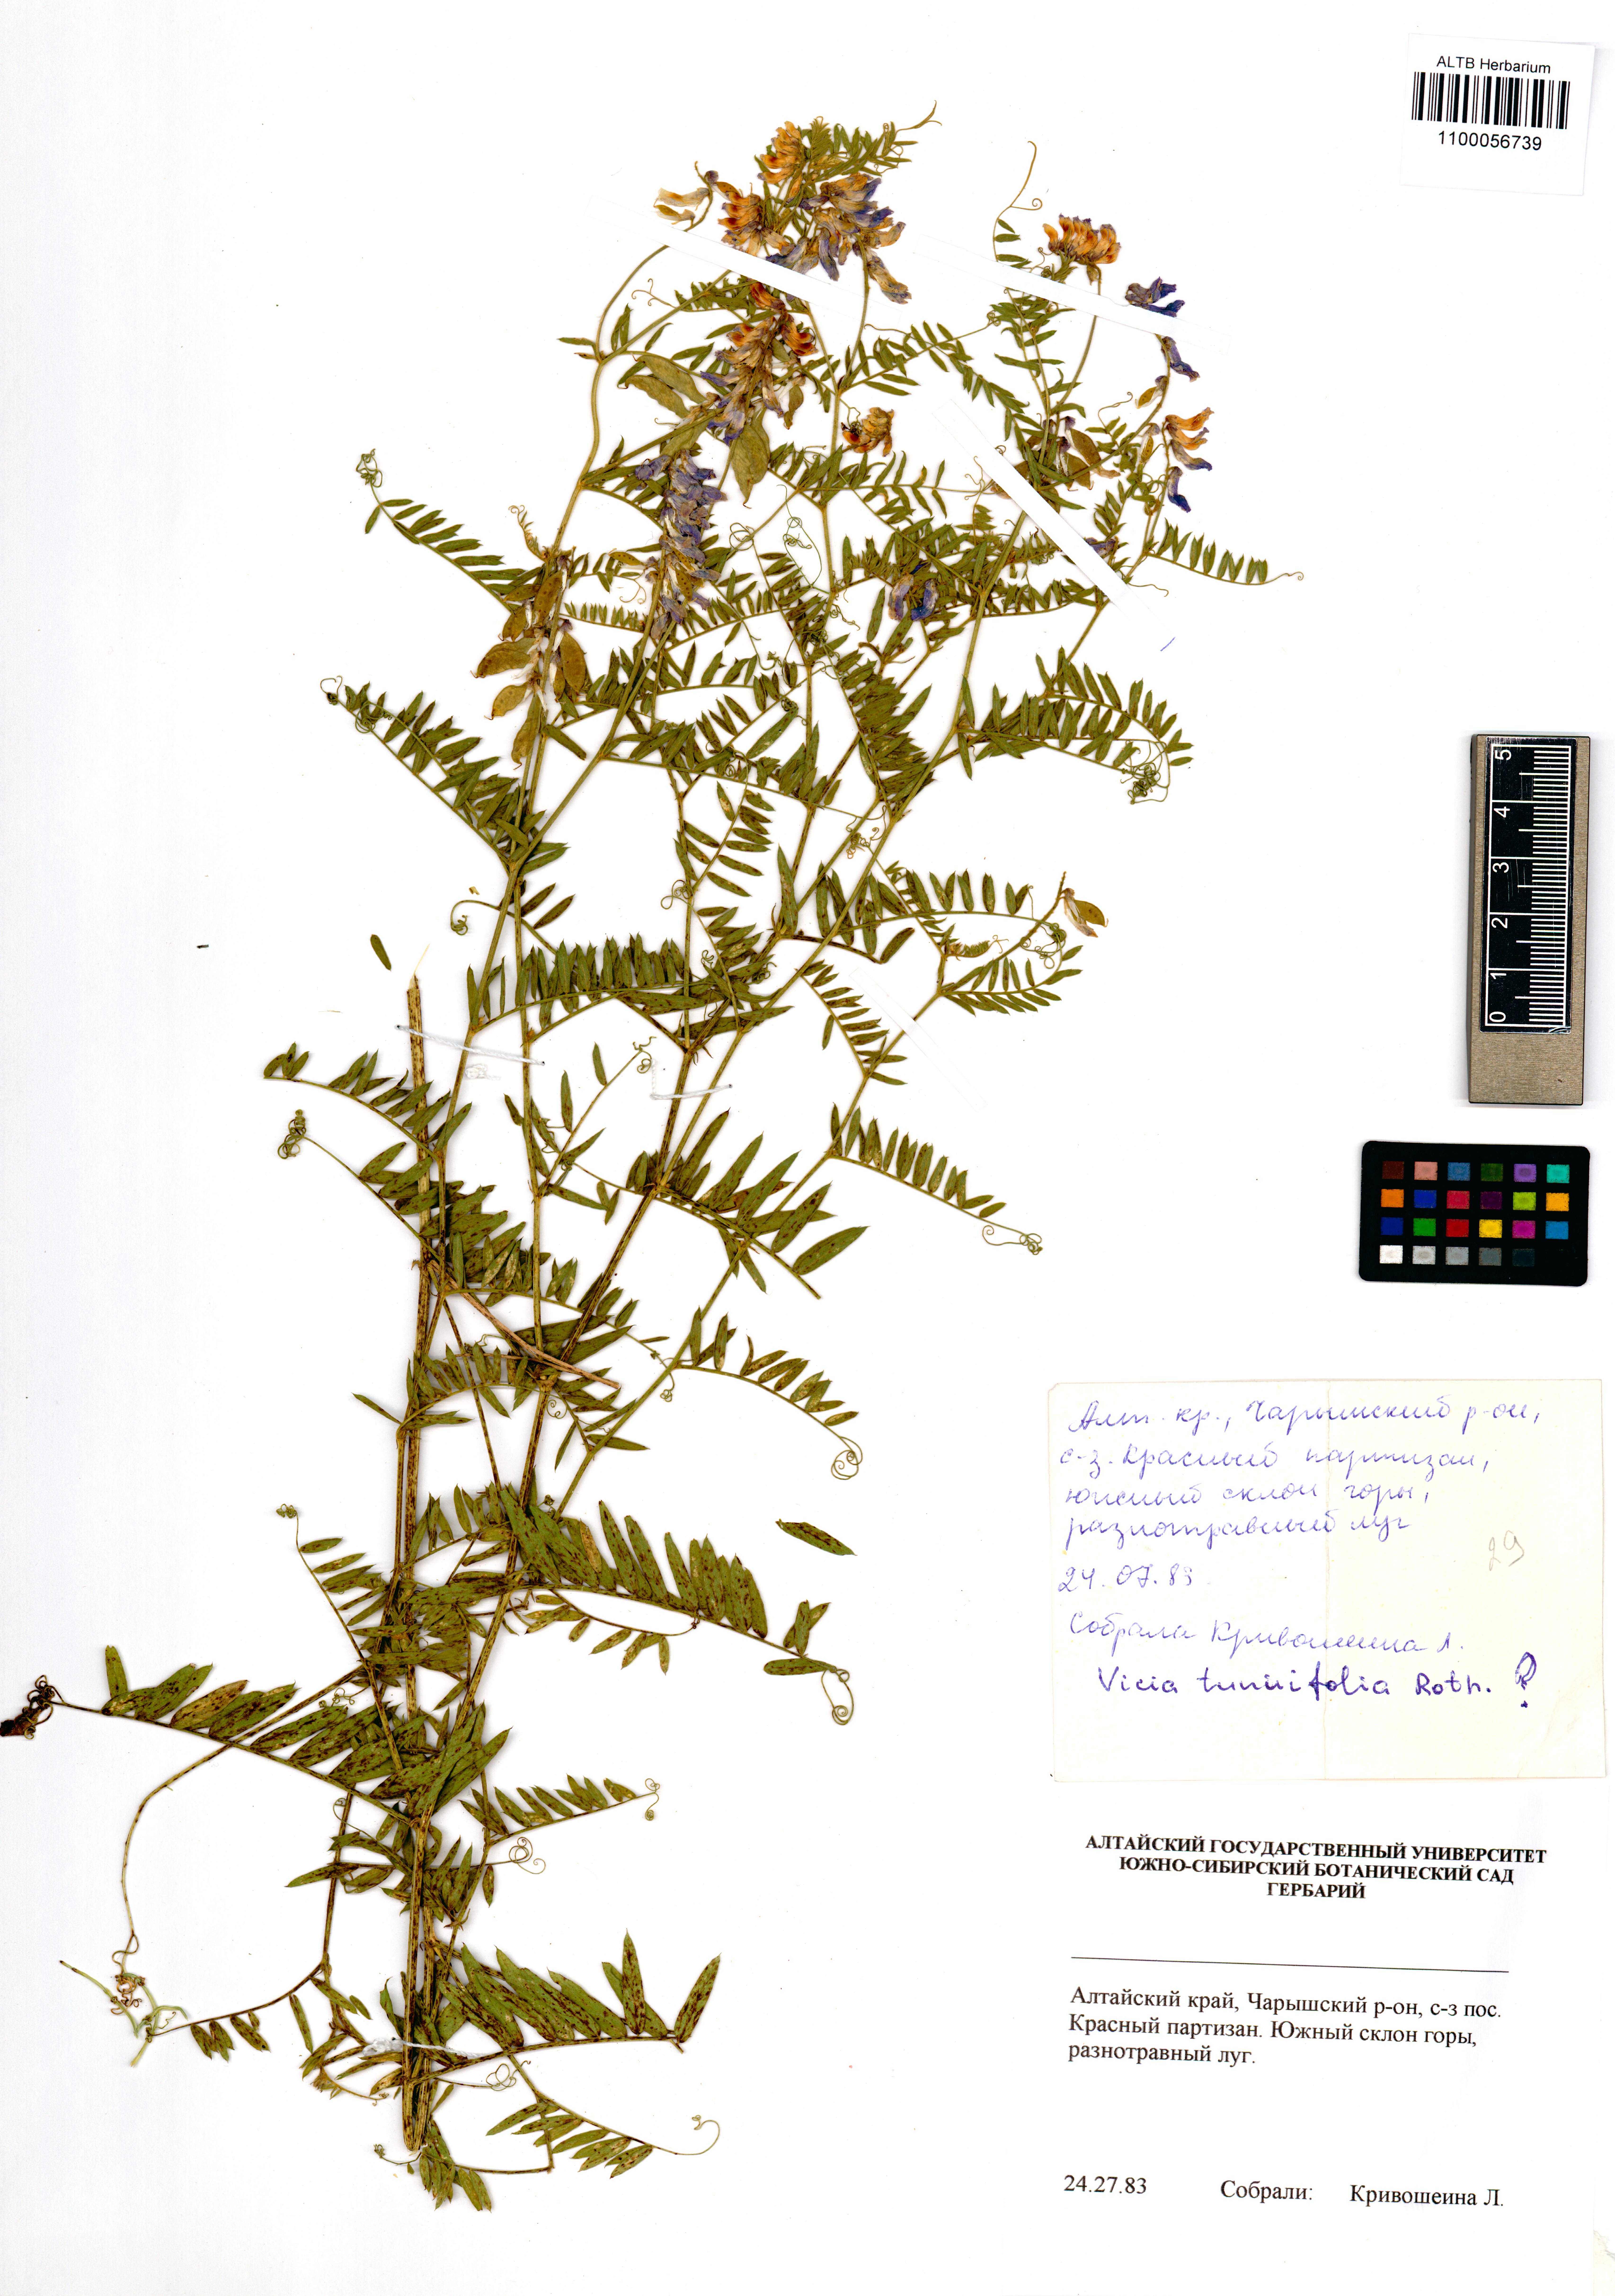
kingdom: Plantae
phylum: Tracheophyta
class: Magnoliopsida
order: Fabales
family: Fabaceae
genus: Vicia
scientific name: Vicia tenuifolia
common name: Fine-leaved vetch
